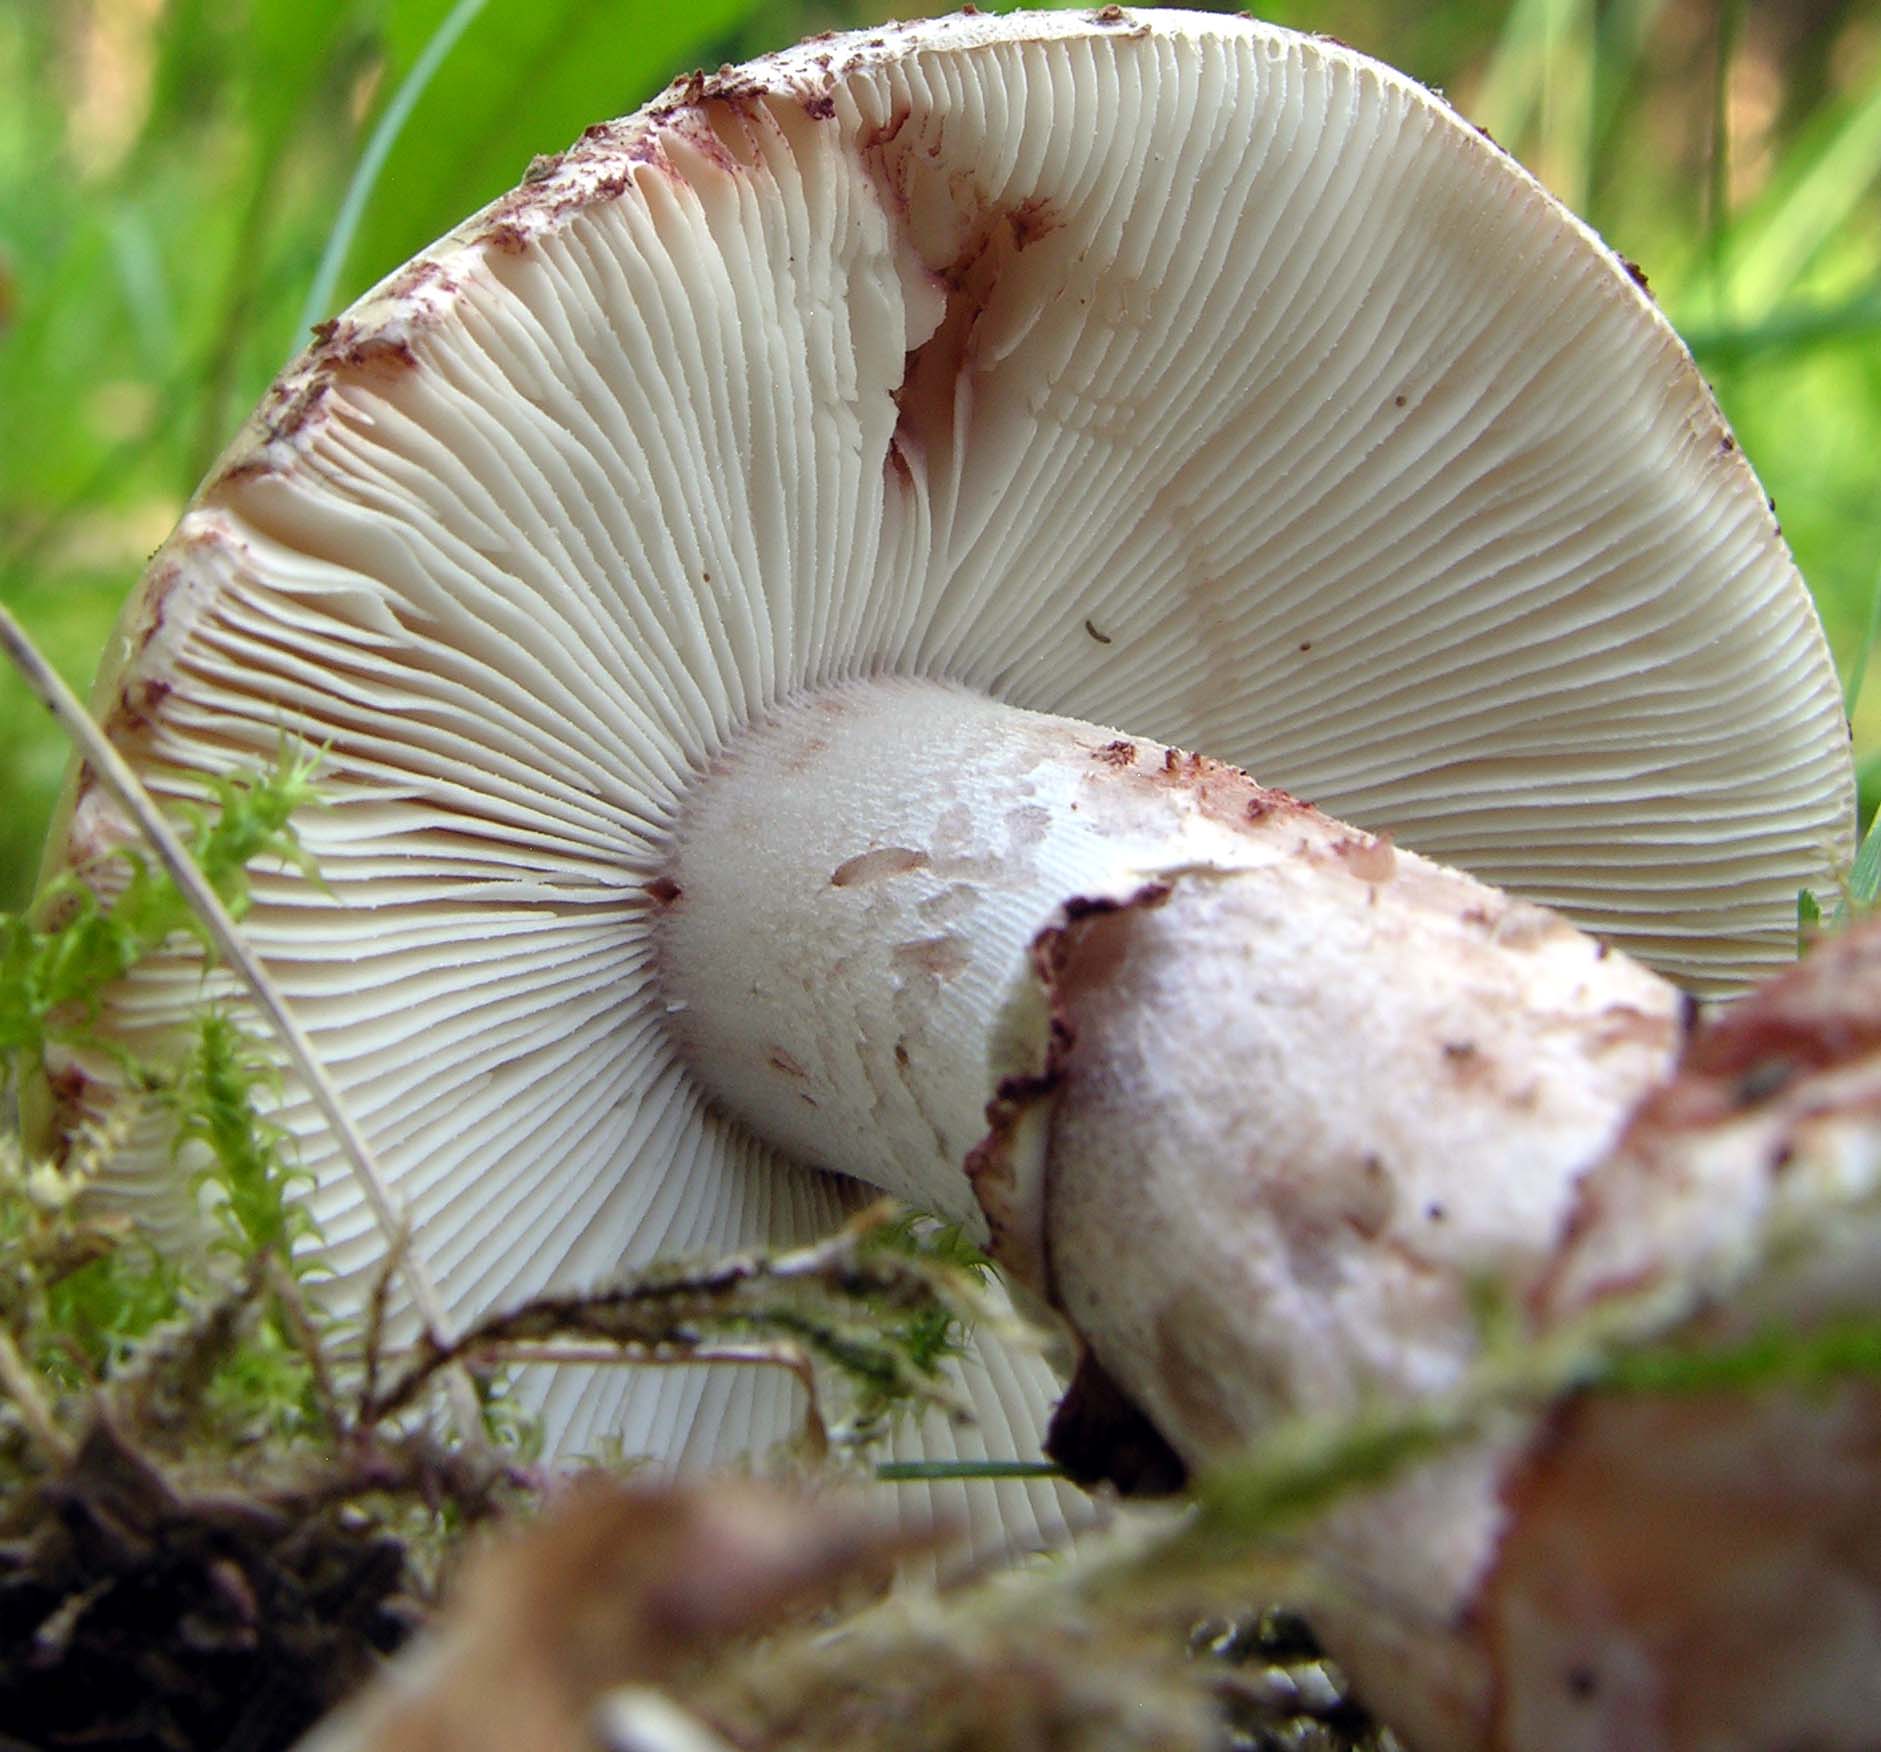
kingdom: Fungi
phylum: Basidiomycota
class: Agaricomycetes
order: Agaricales
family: Amanitaceae
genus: Amanita
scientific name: Amanita rubescens
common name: rødmende fluesvamp
